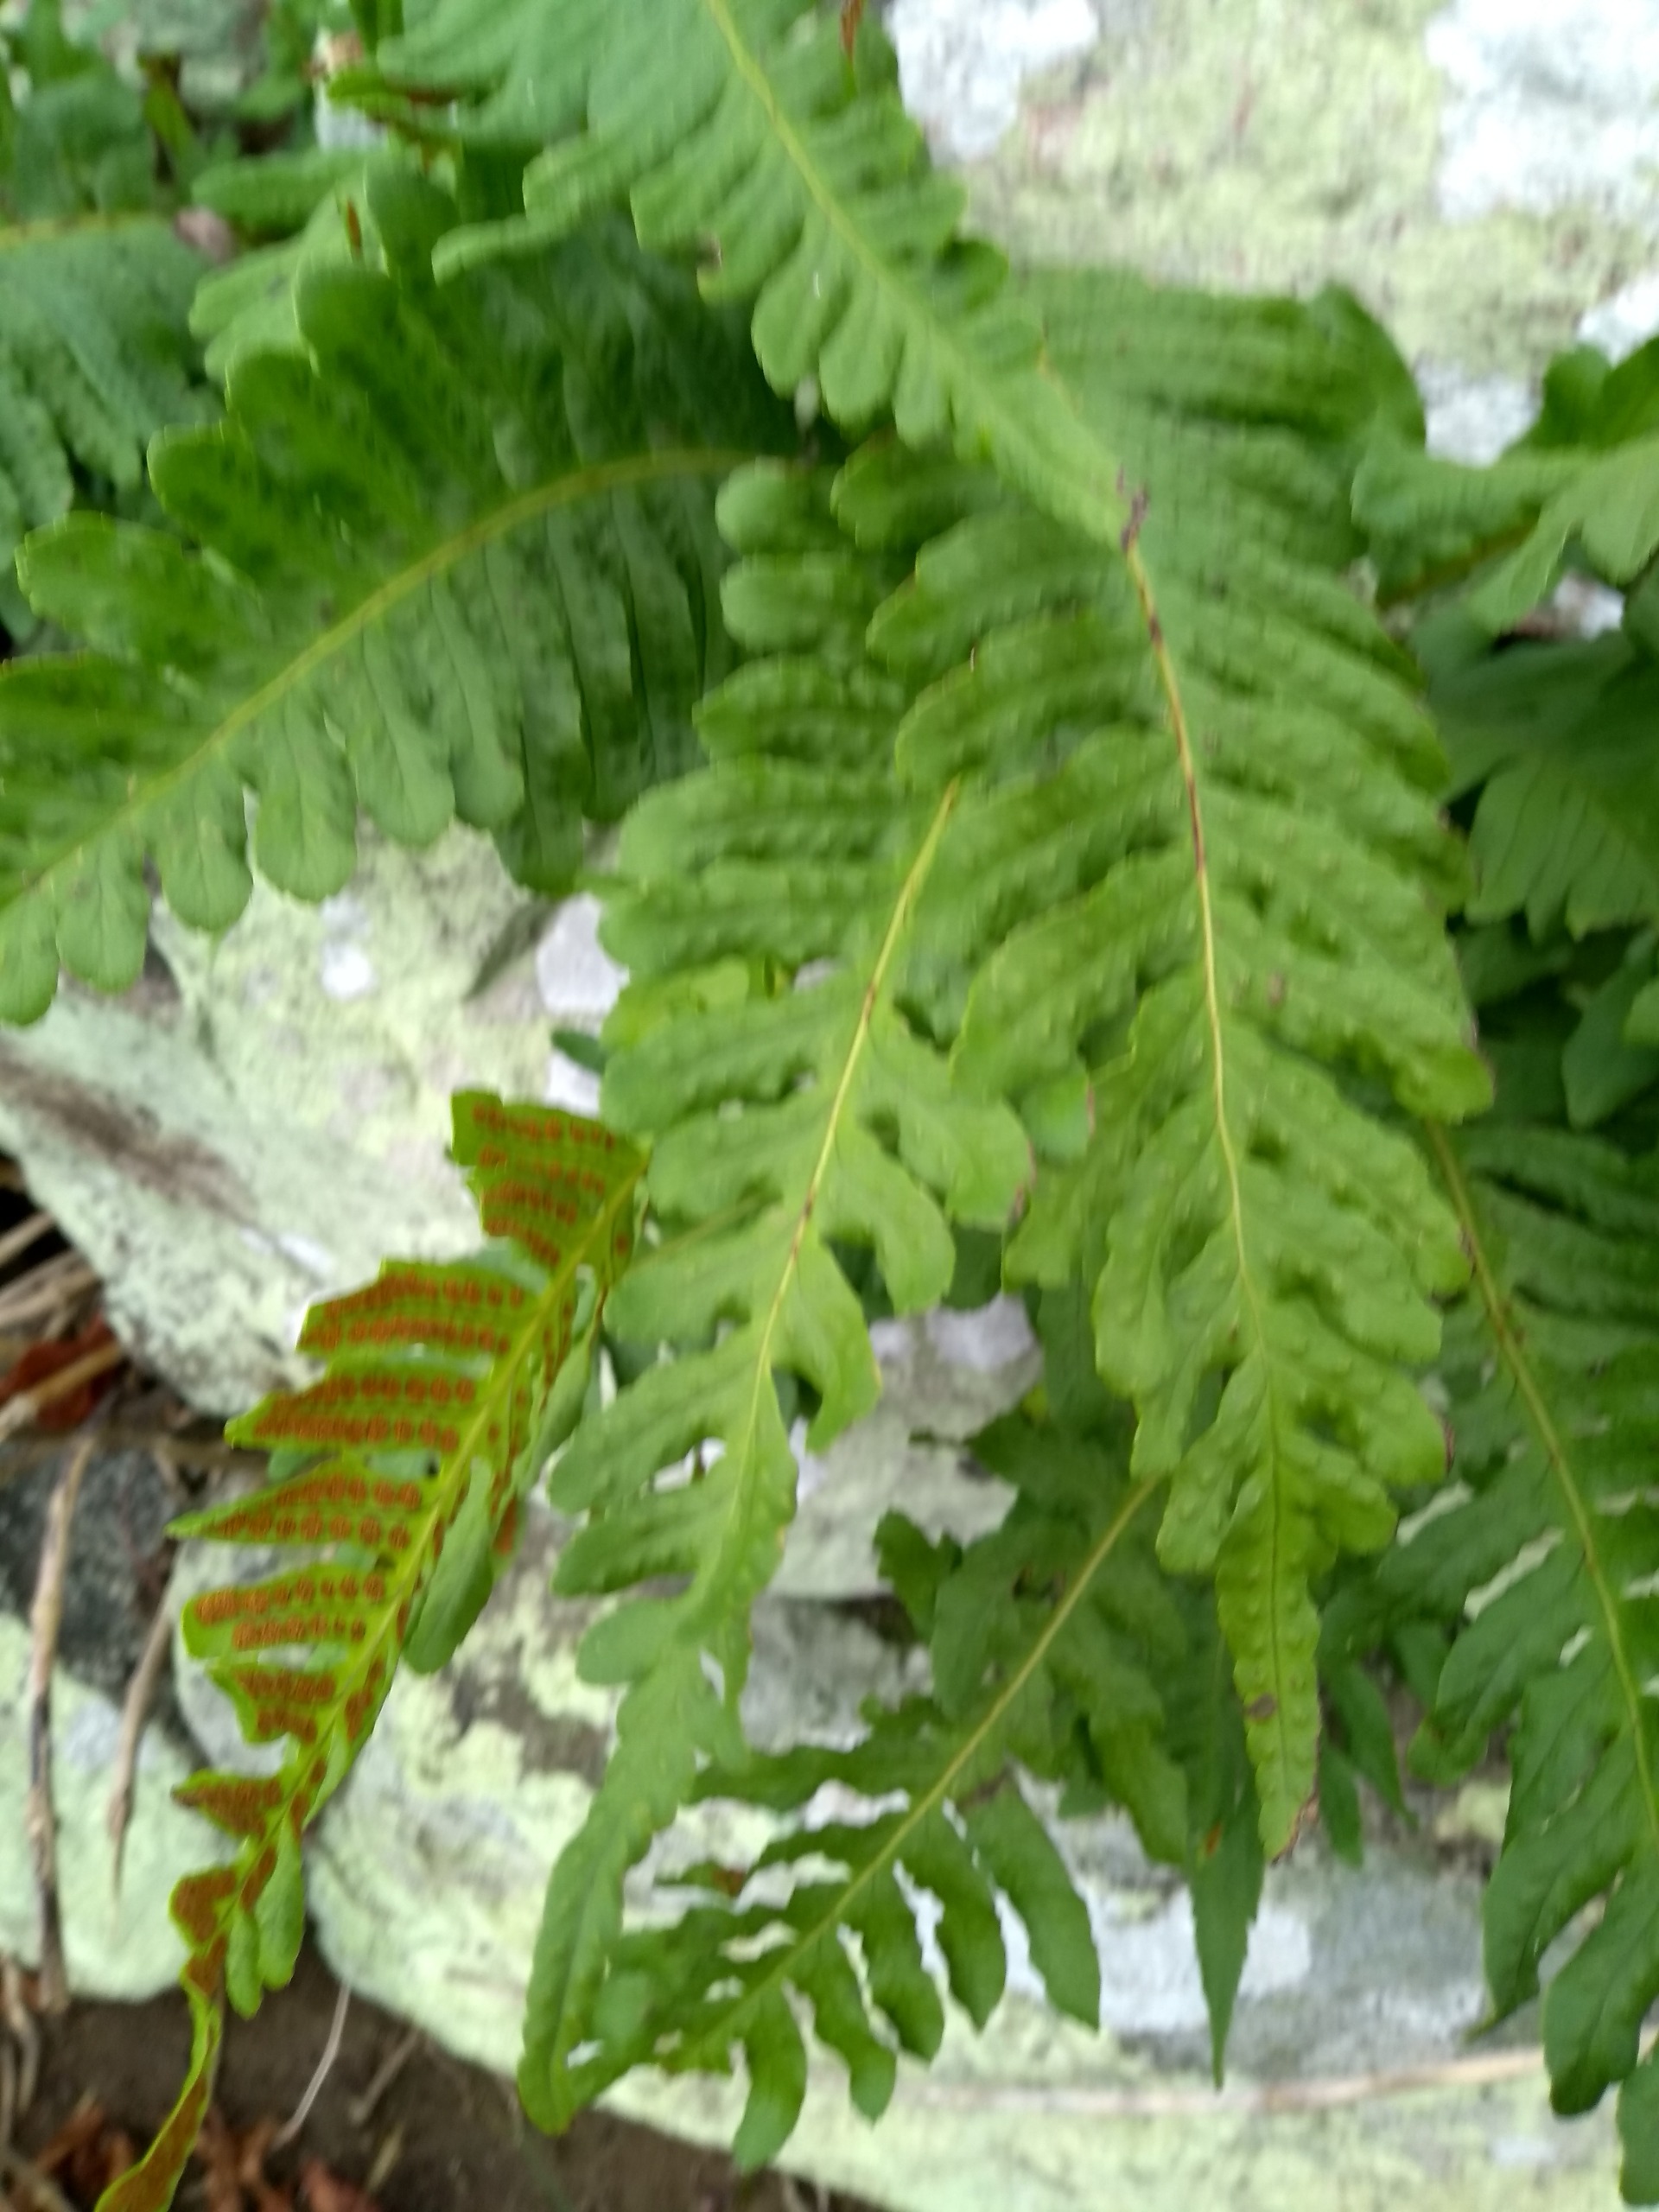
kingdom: Plantae
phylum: Tracheophyta
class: Polypodiopsida
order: Polypodiales
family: Polypodiaceae
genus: Polypodium
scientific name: Polypodium vulgare
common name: Almindelig engelsød
